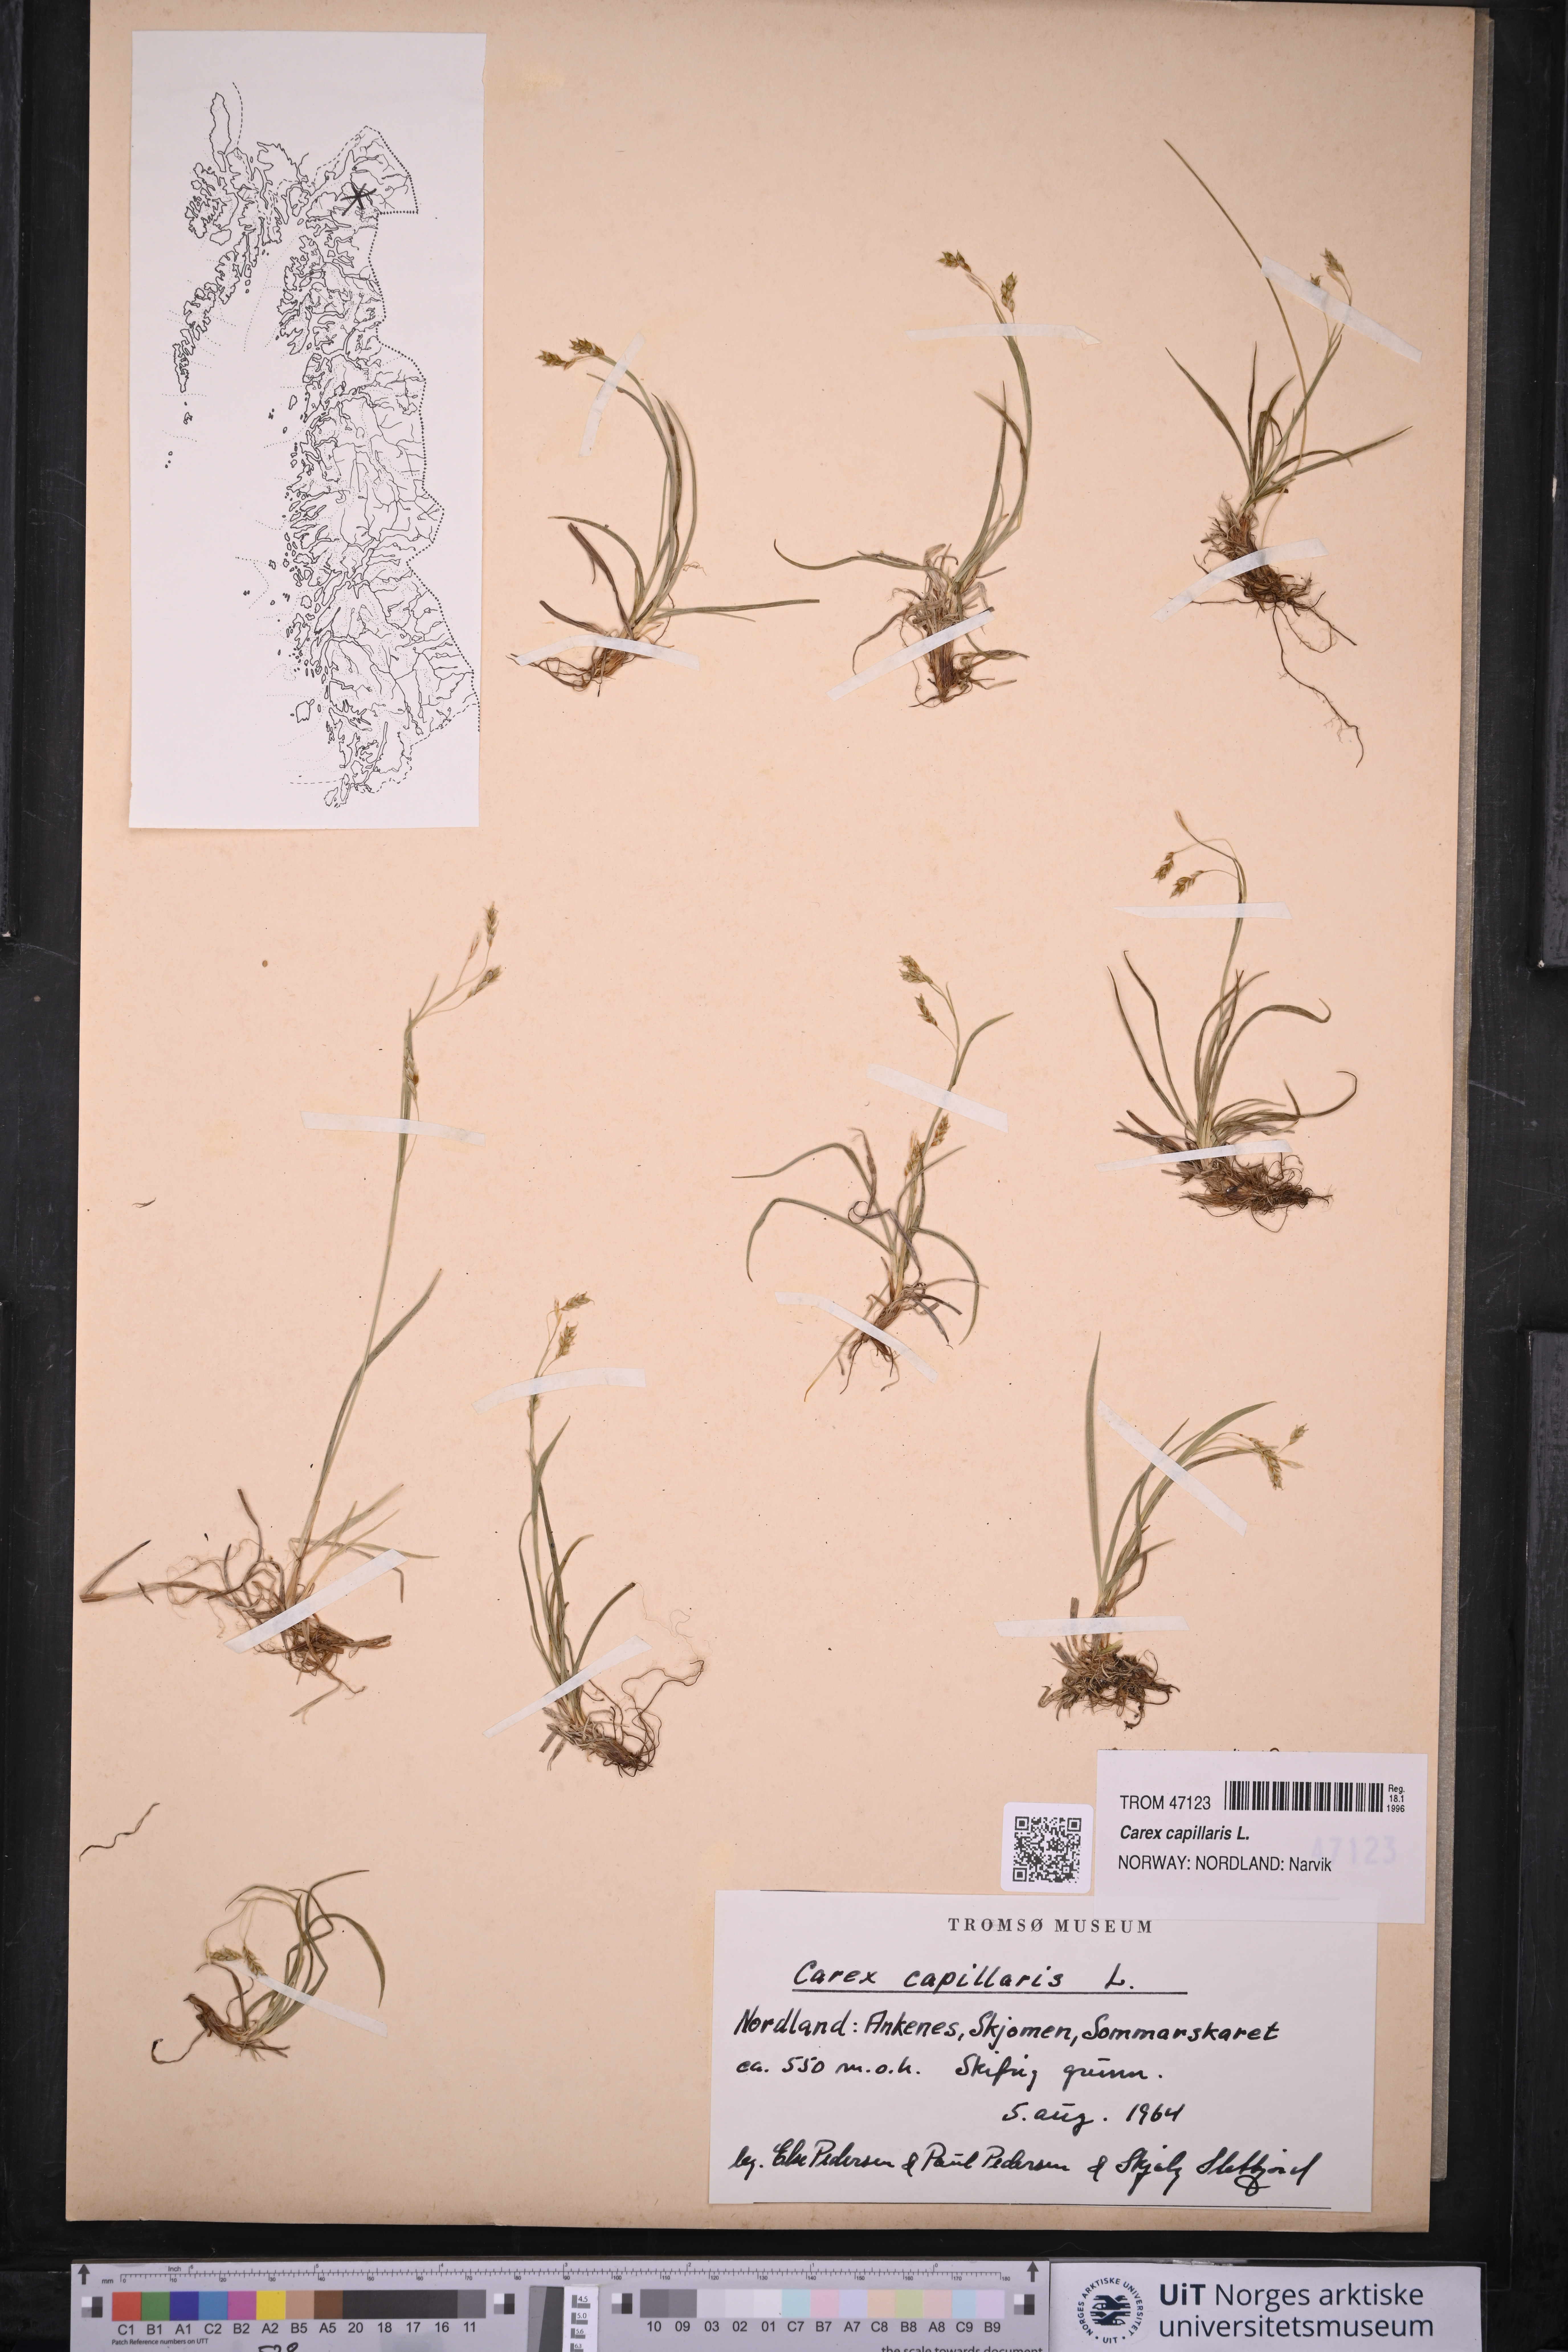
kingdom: Plantae
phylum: Tracheophyta
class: Liliopsida
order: Poales
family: Cyperaceae
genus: Carex
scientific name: Carex capillaris
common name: Hair sedge
